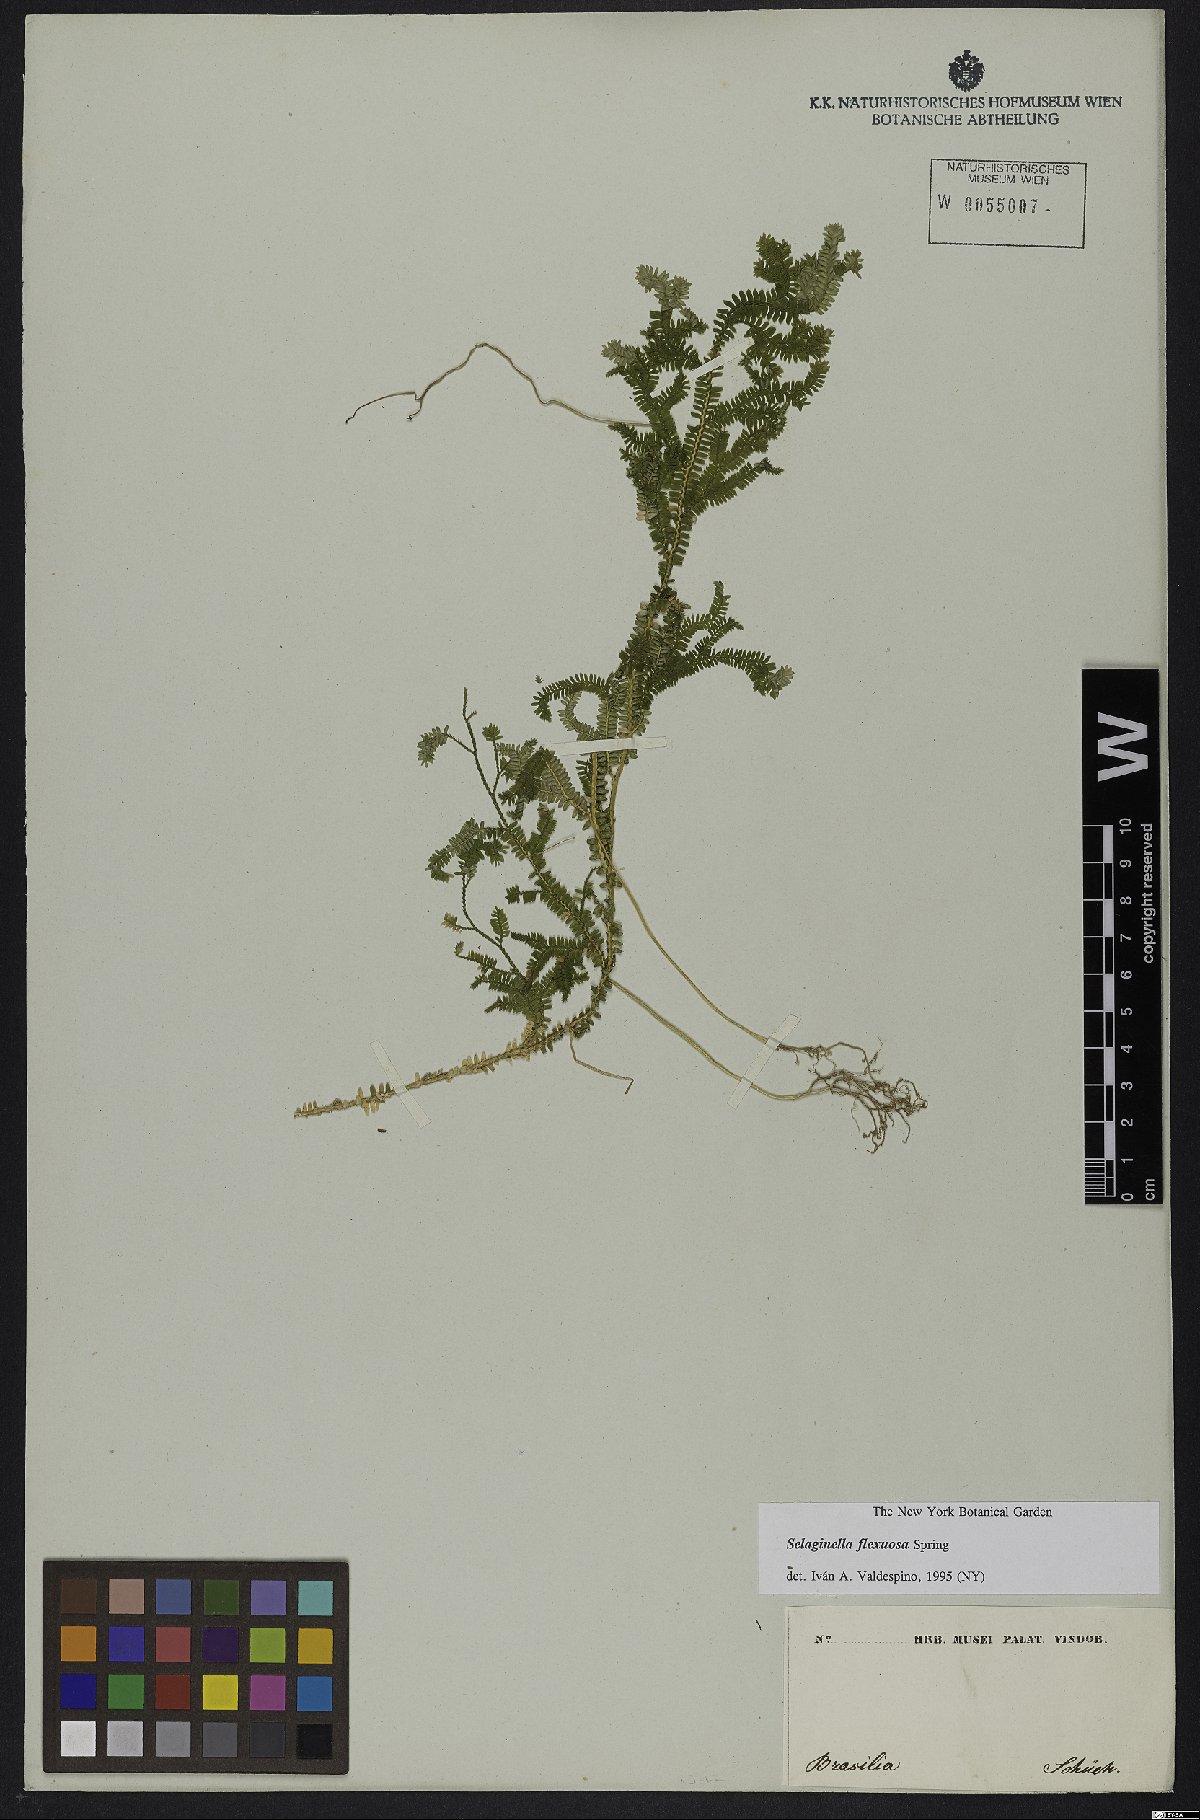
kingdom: Plantae
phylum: Tracheophyta
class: Lycopodiopsida
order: Selaginellales
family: Selaginellaceae
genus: Selaginella
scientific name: Selaginella flexuosa
